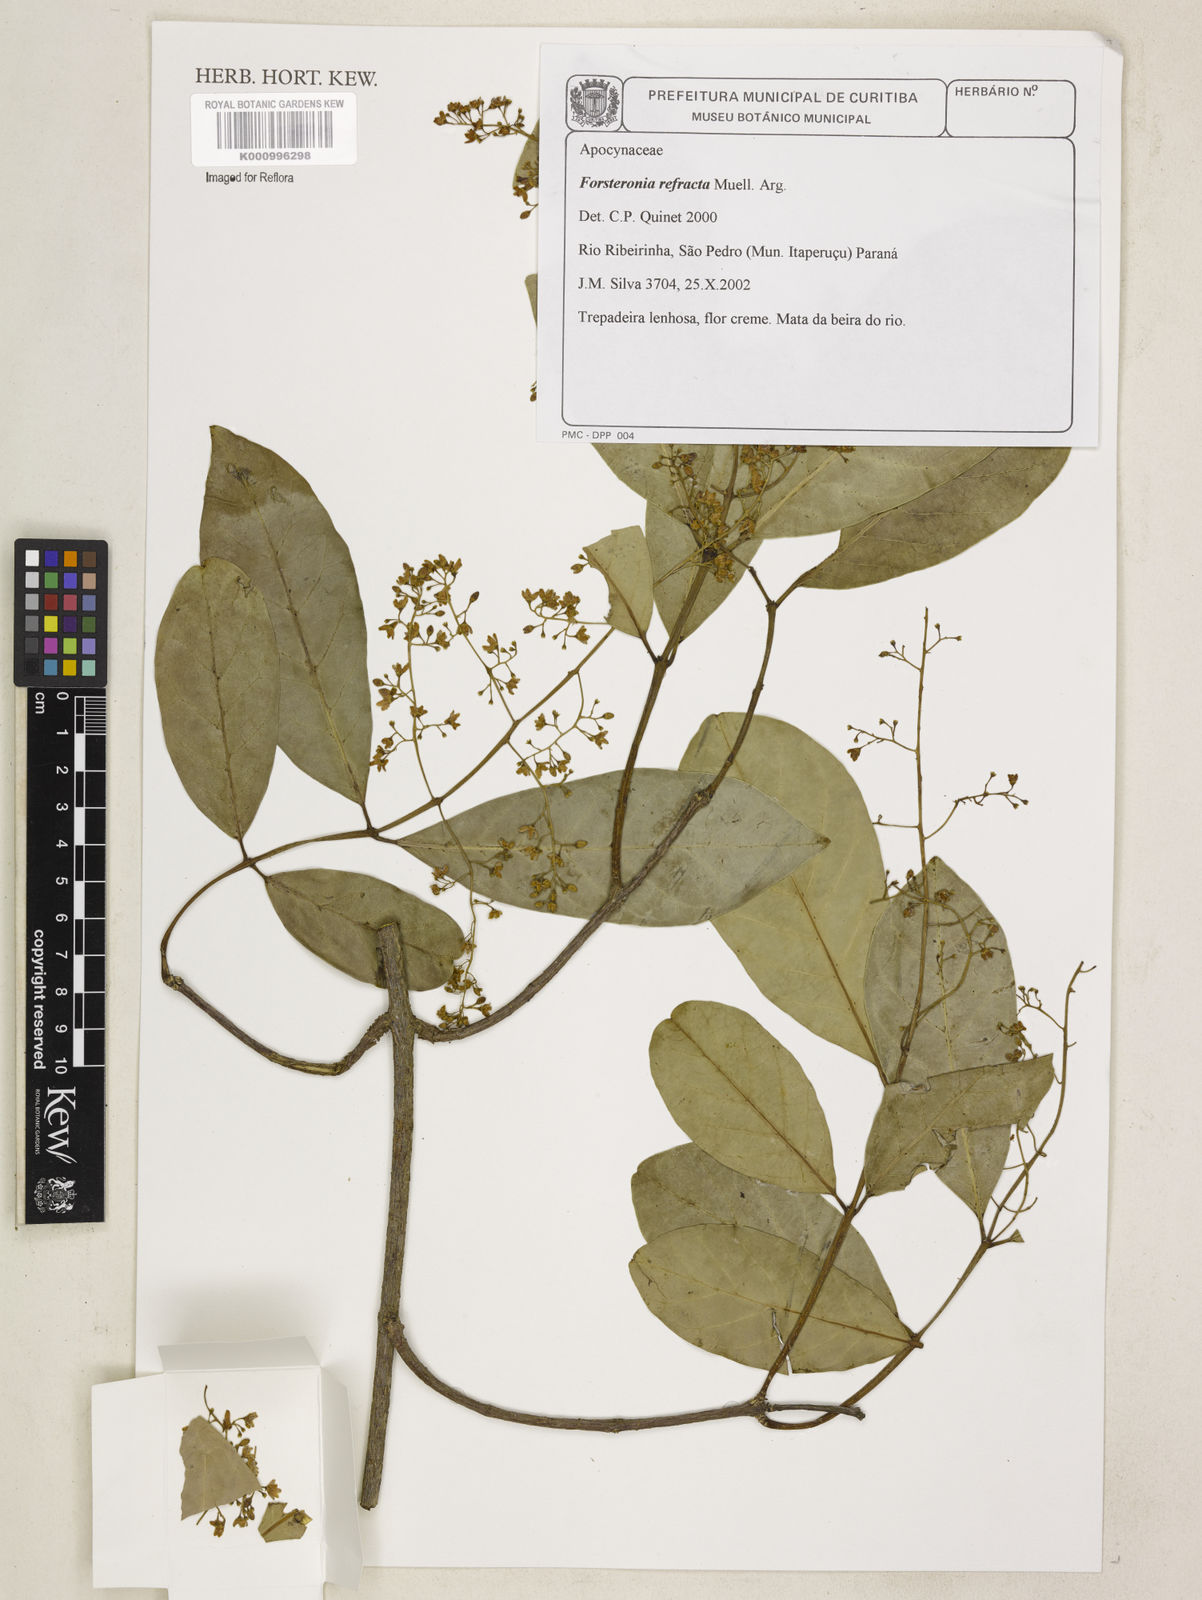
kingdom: Plantae
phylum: Tracheophyta
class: Magnoliopsida
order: Gentianales
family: Apocynaceae
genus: Forsteronia
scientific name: Forsteronia
